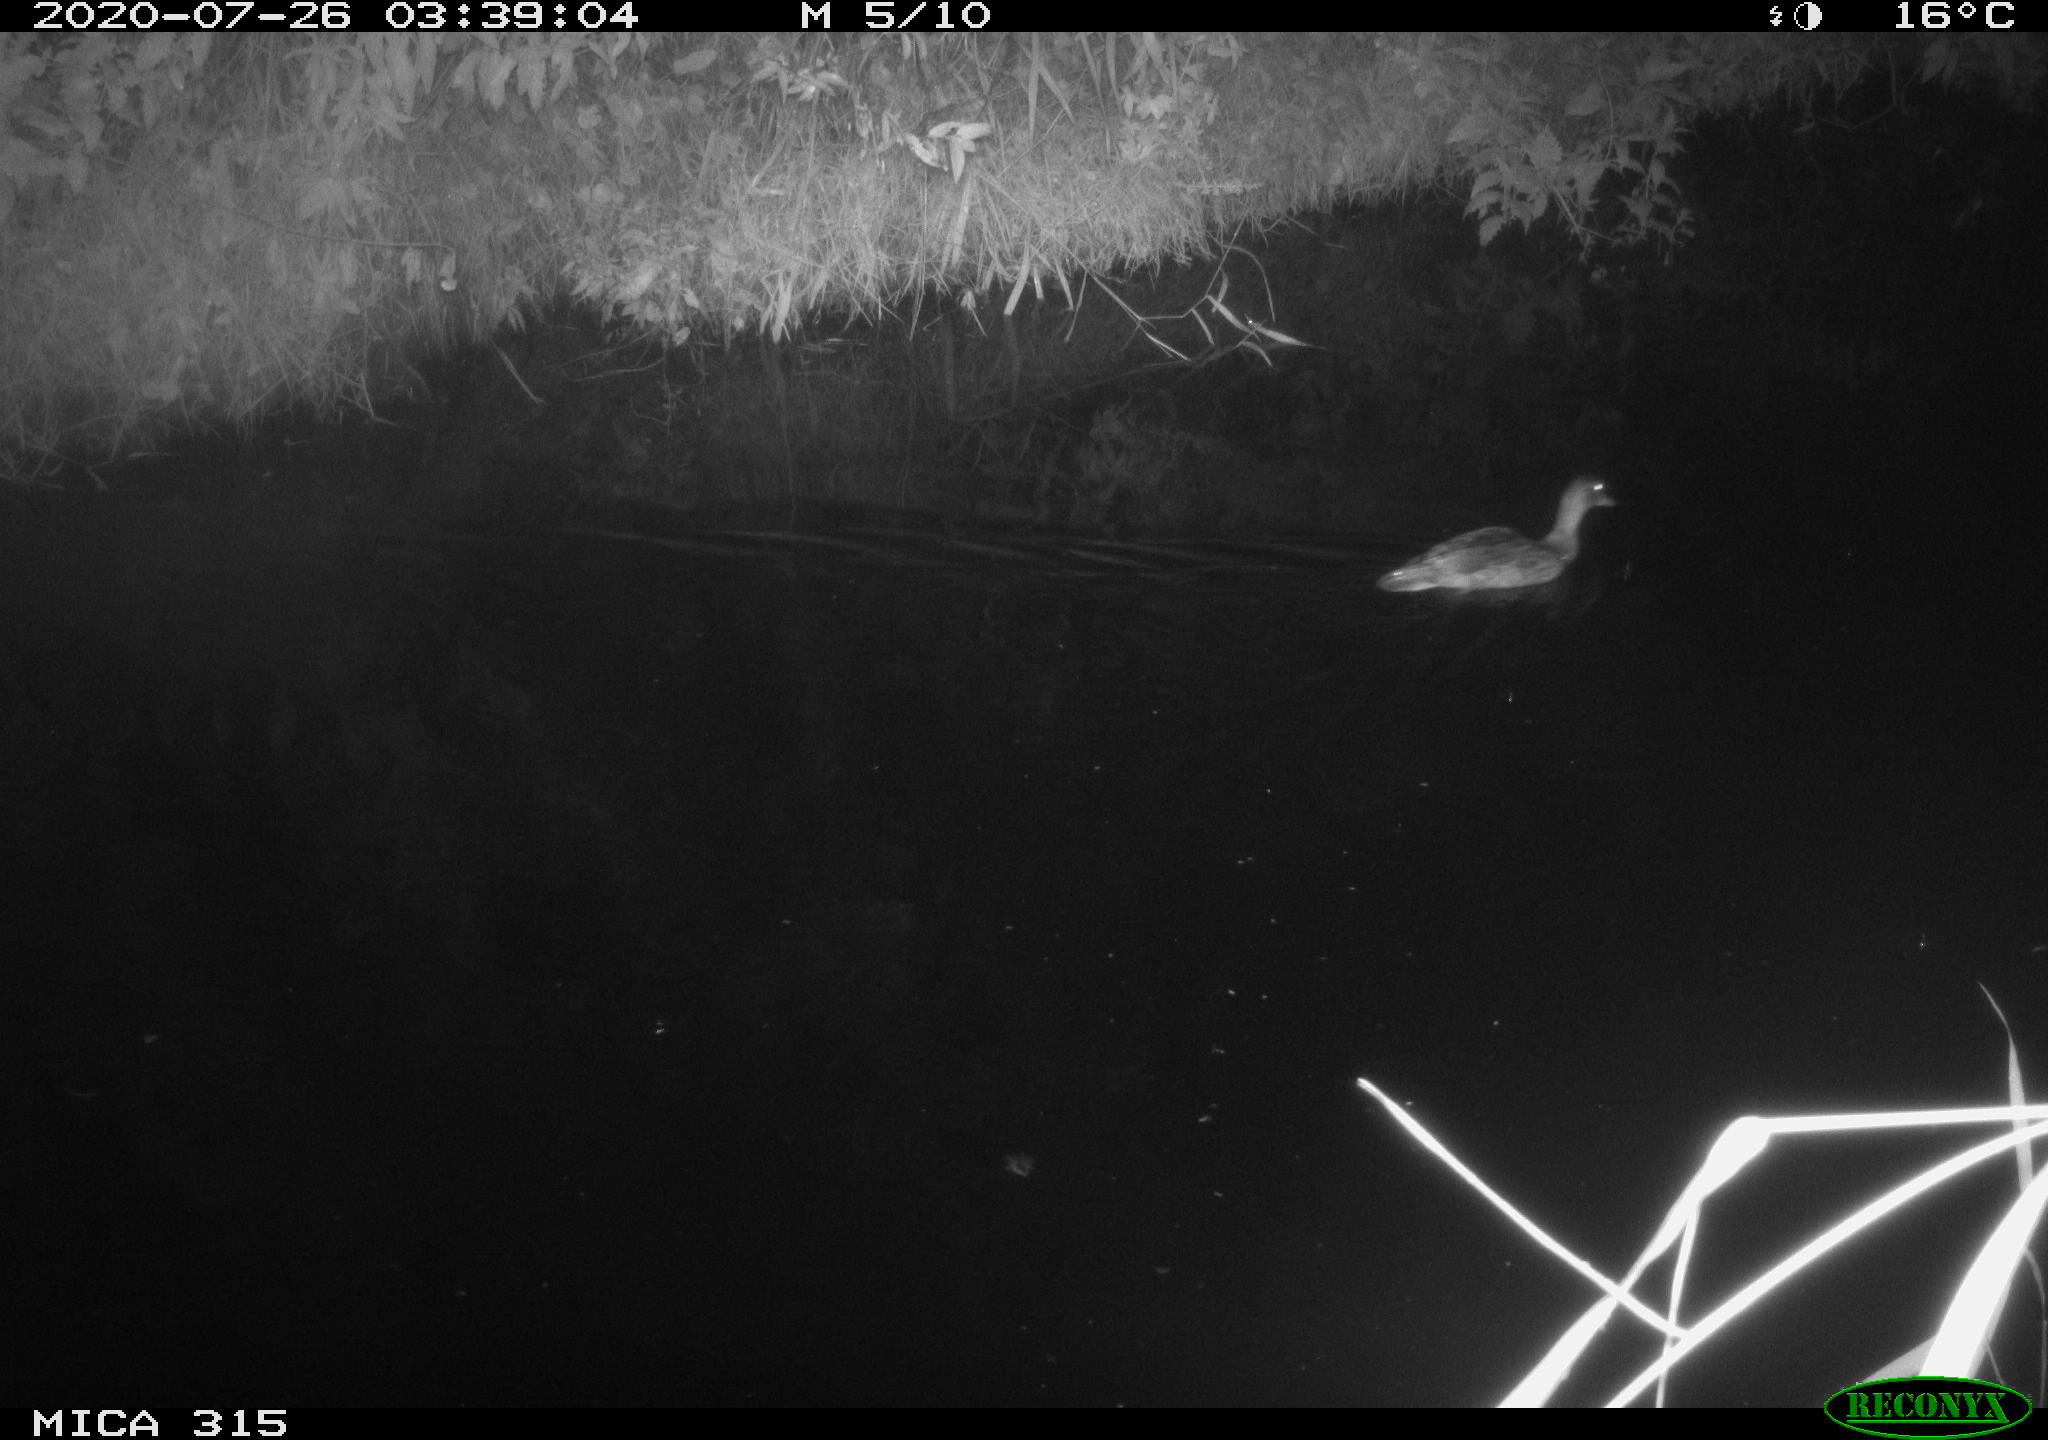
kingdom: Animalia
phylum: Chordata
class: Aves
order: Anseriformes
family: Anatidae
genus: Anas
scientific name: Anas platyrhynchos
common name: Mallard
